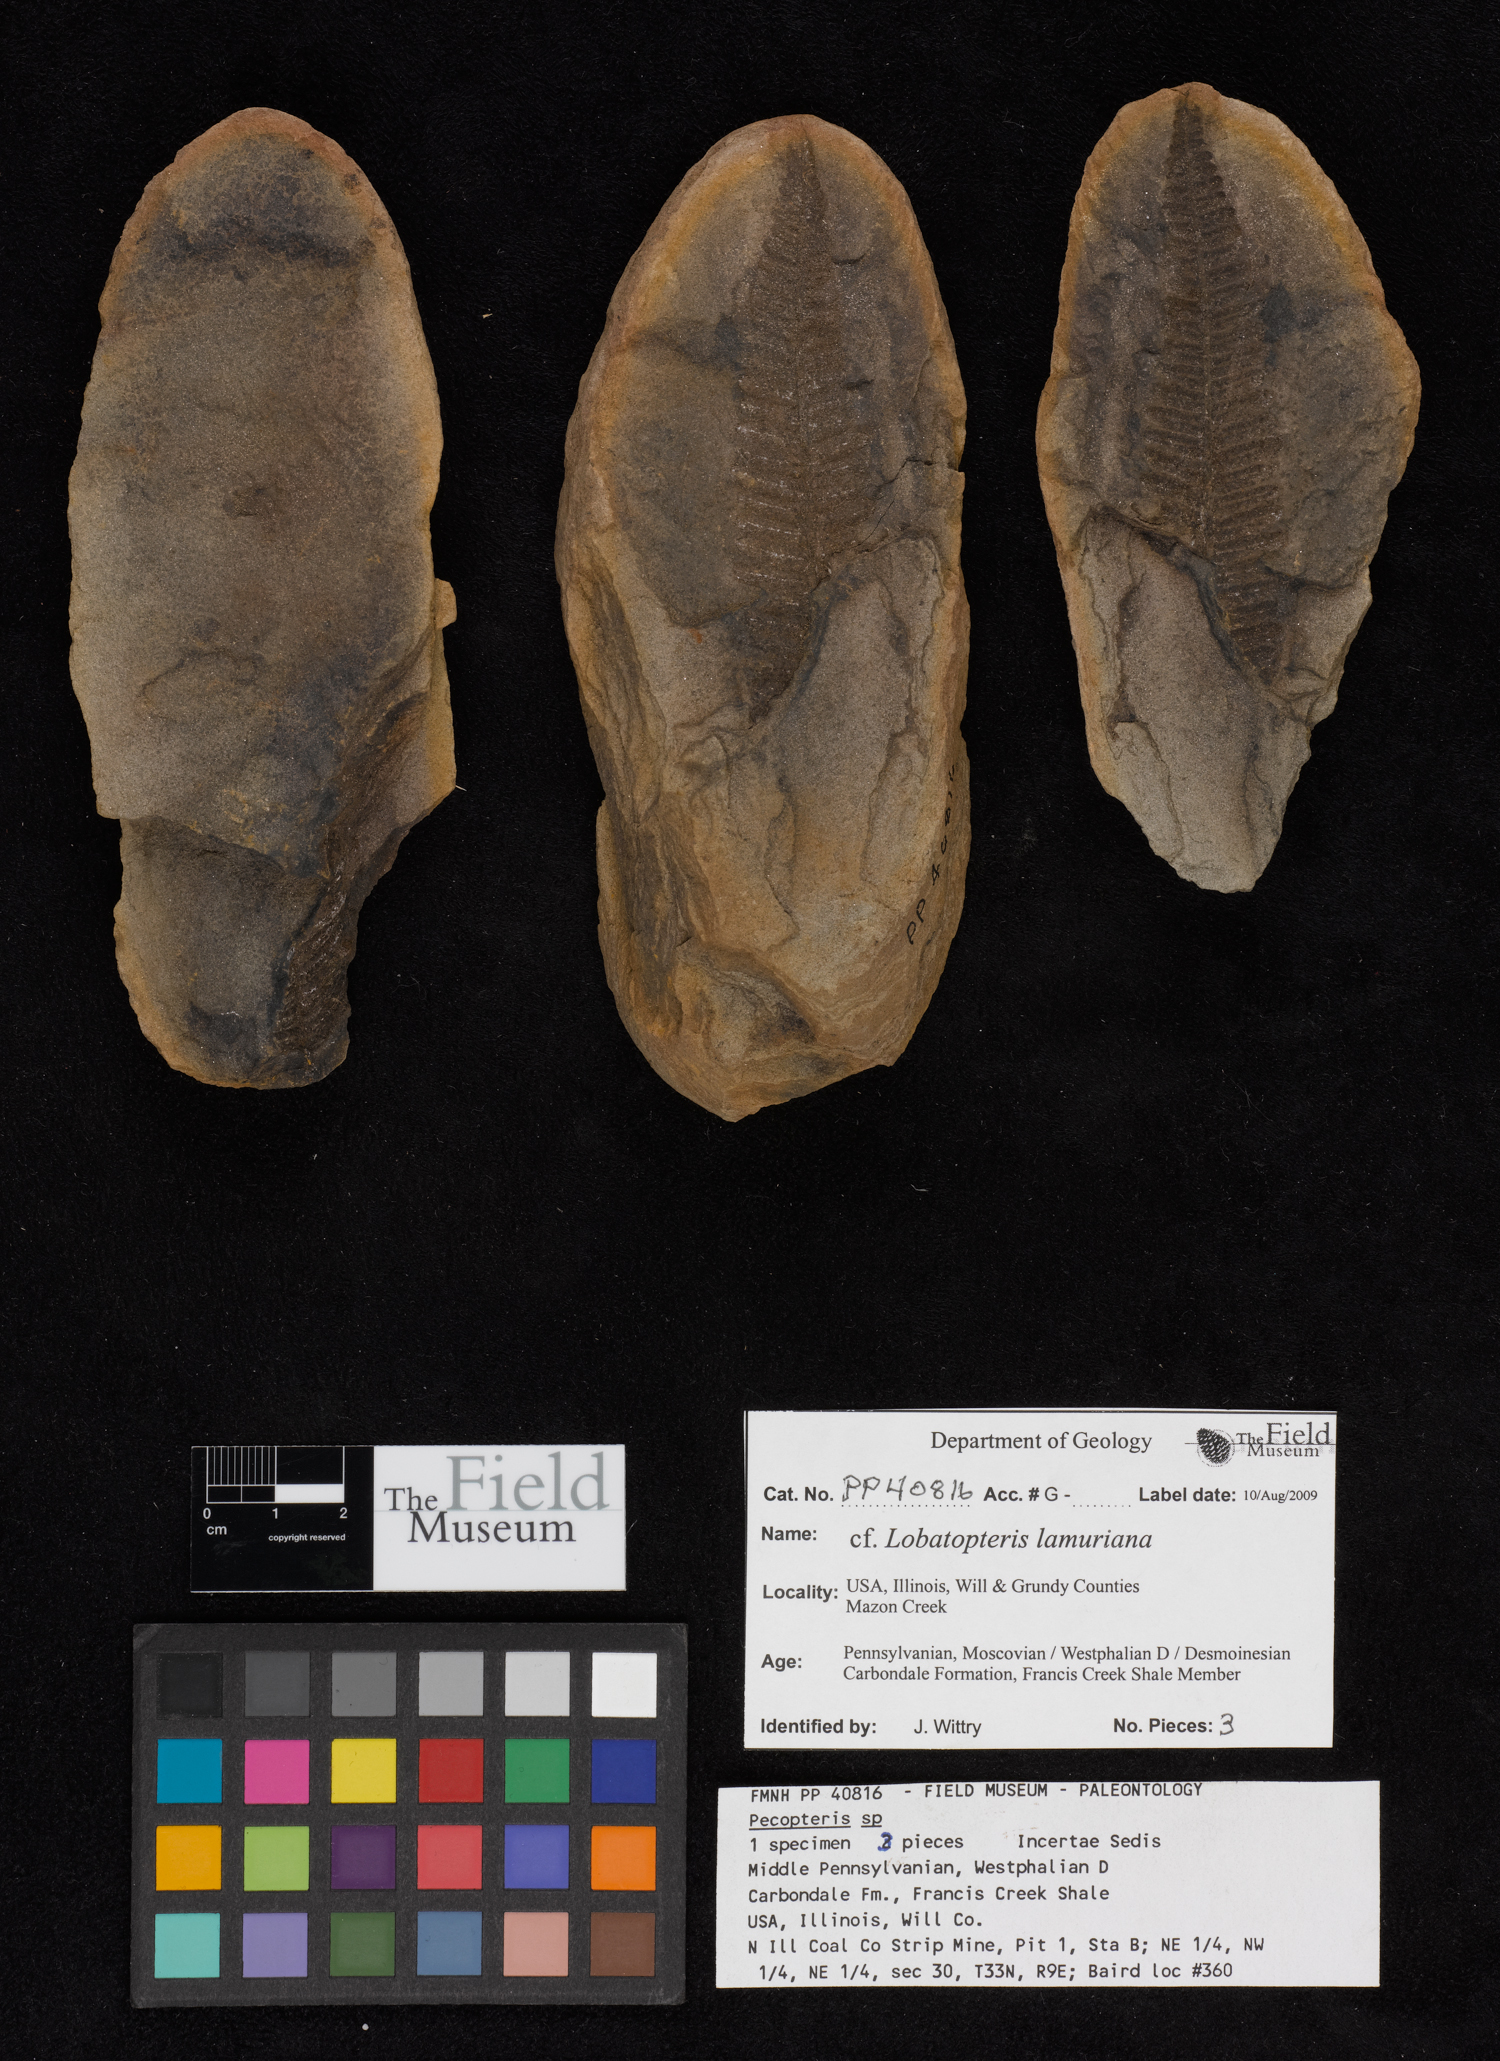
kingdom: Plantae
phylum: Tracheophyta
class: Polypodiopsida
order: Marattiales
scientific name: Marattiales
